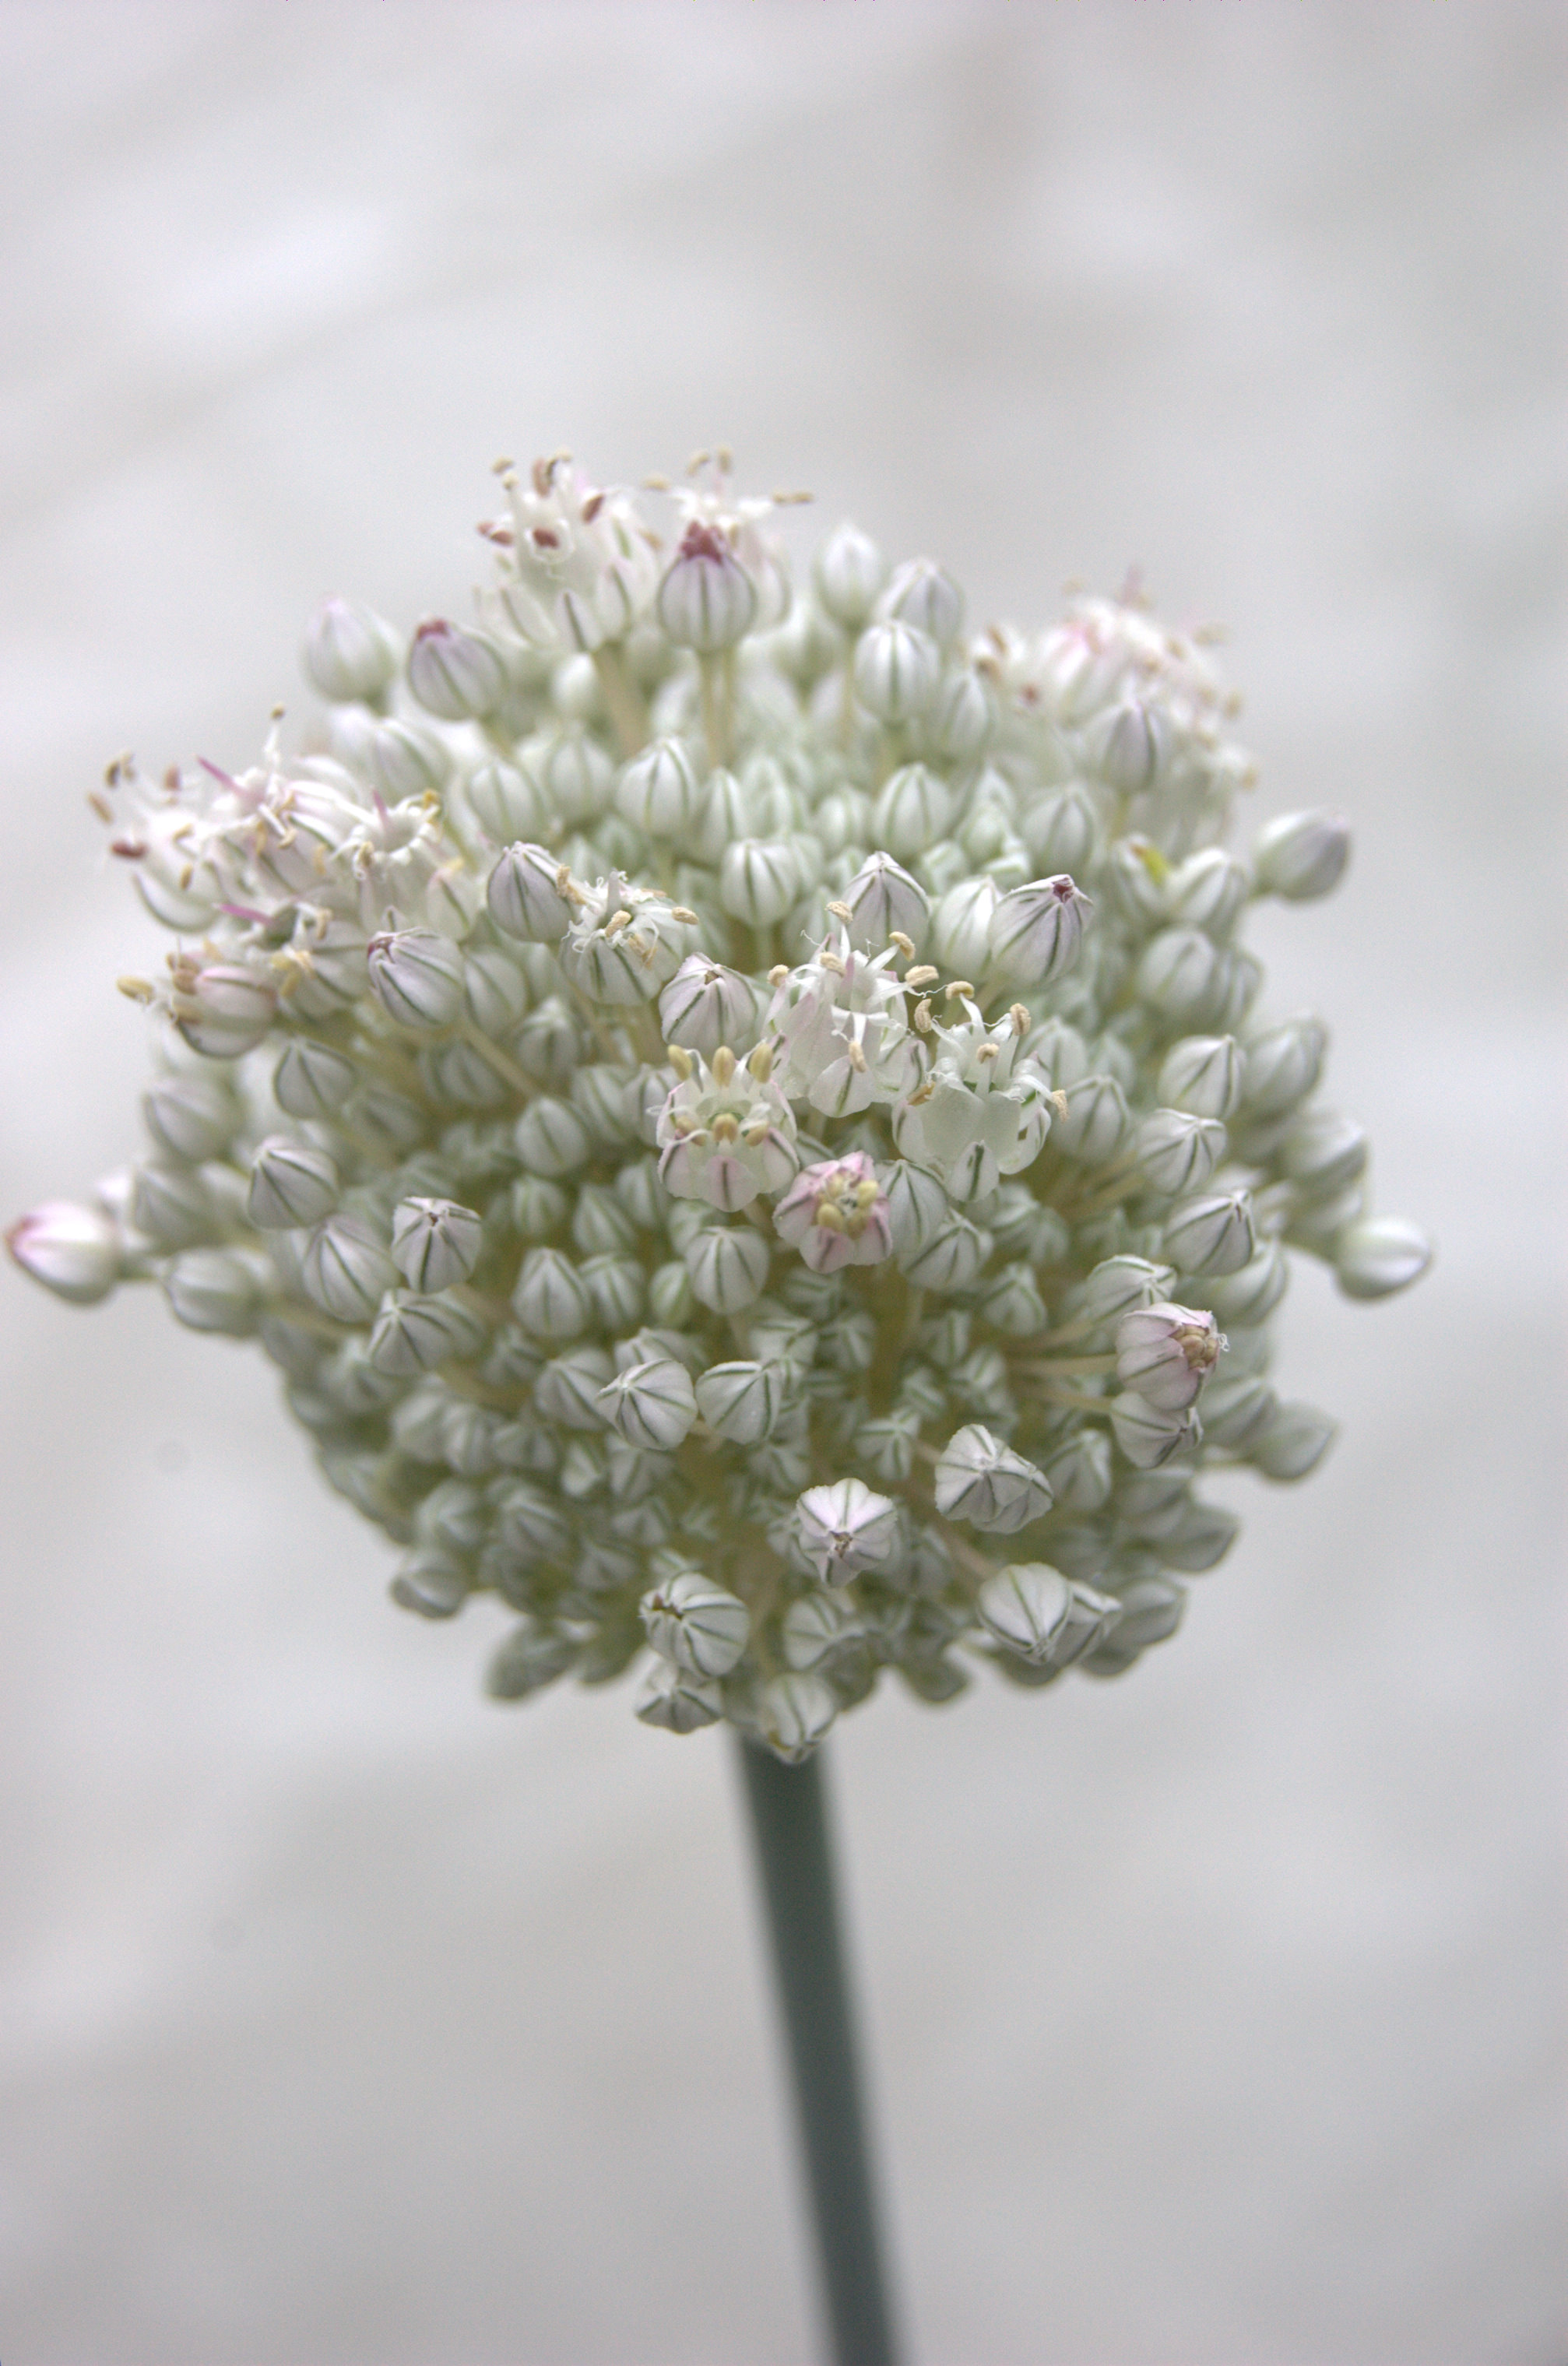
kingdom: Plantae
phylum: Tracheophyta
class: Liliopsida
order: Asparagales
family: Amaryllidaceae
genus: Allium
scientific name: Allium ampeloprasum
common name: Wild leek
